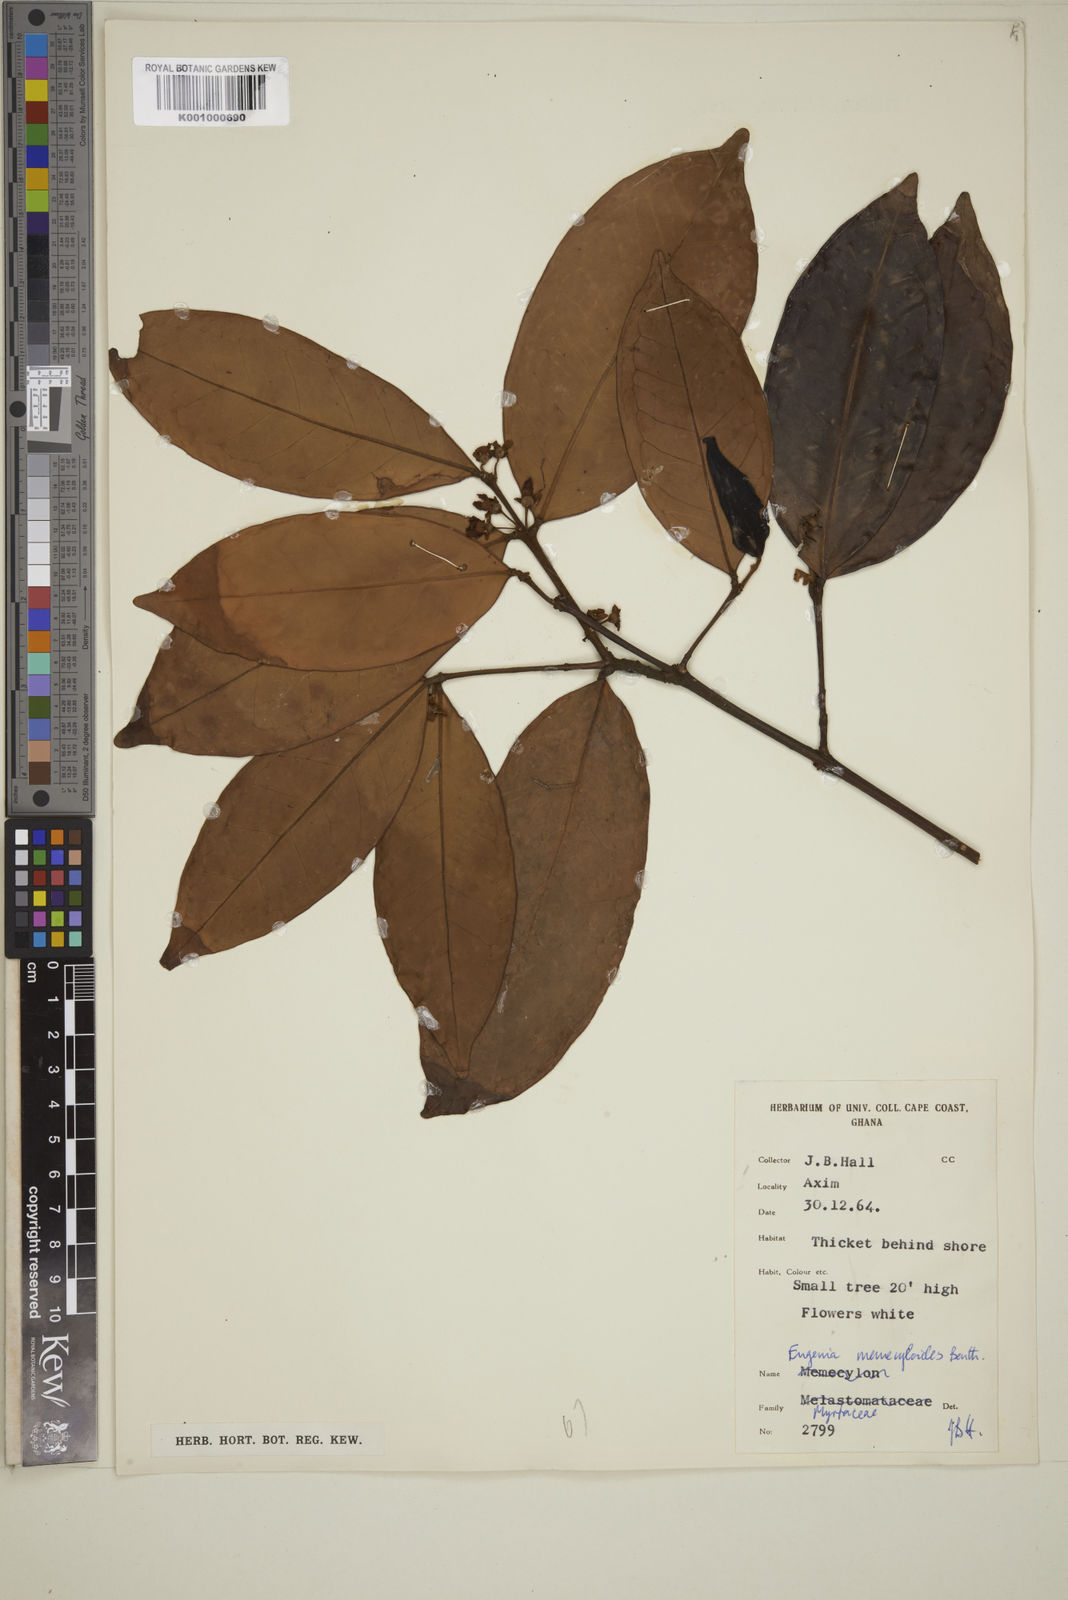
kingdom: Plantae
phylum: Tracheophyta
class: Magnoliopsida
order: Myrtales
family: Myrtaceae
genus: Eugenia
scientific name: Eugenia memecyloides
